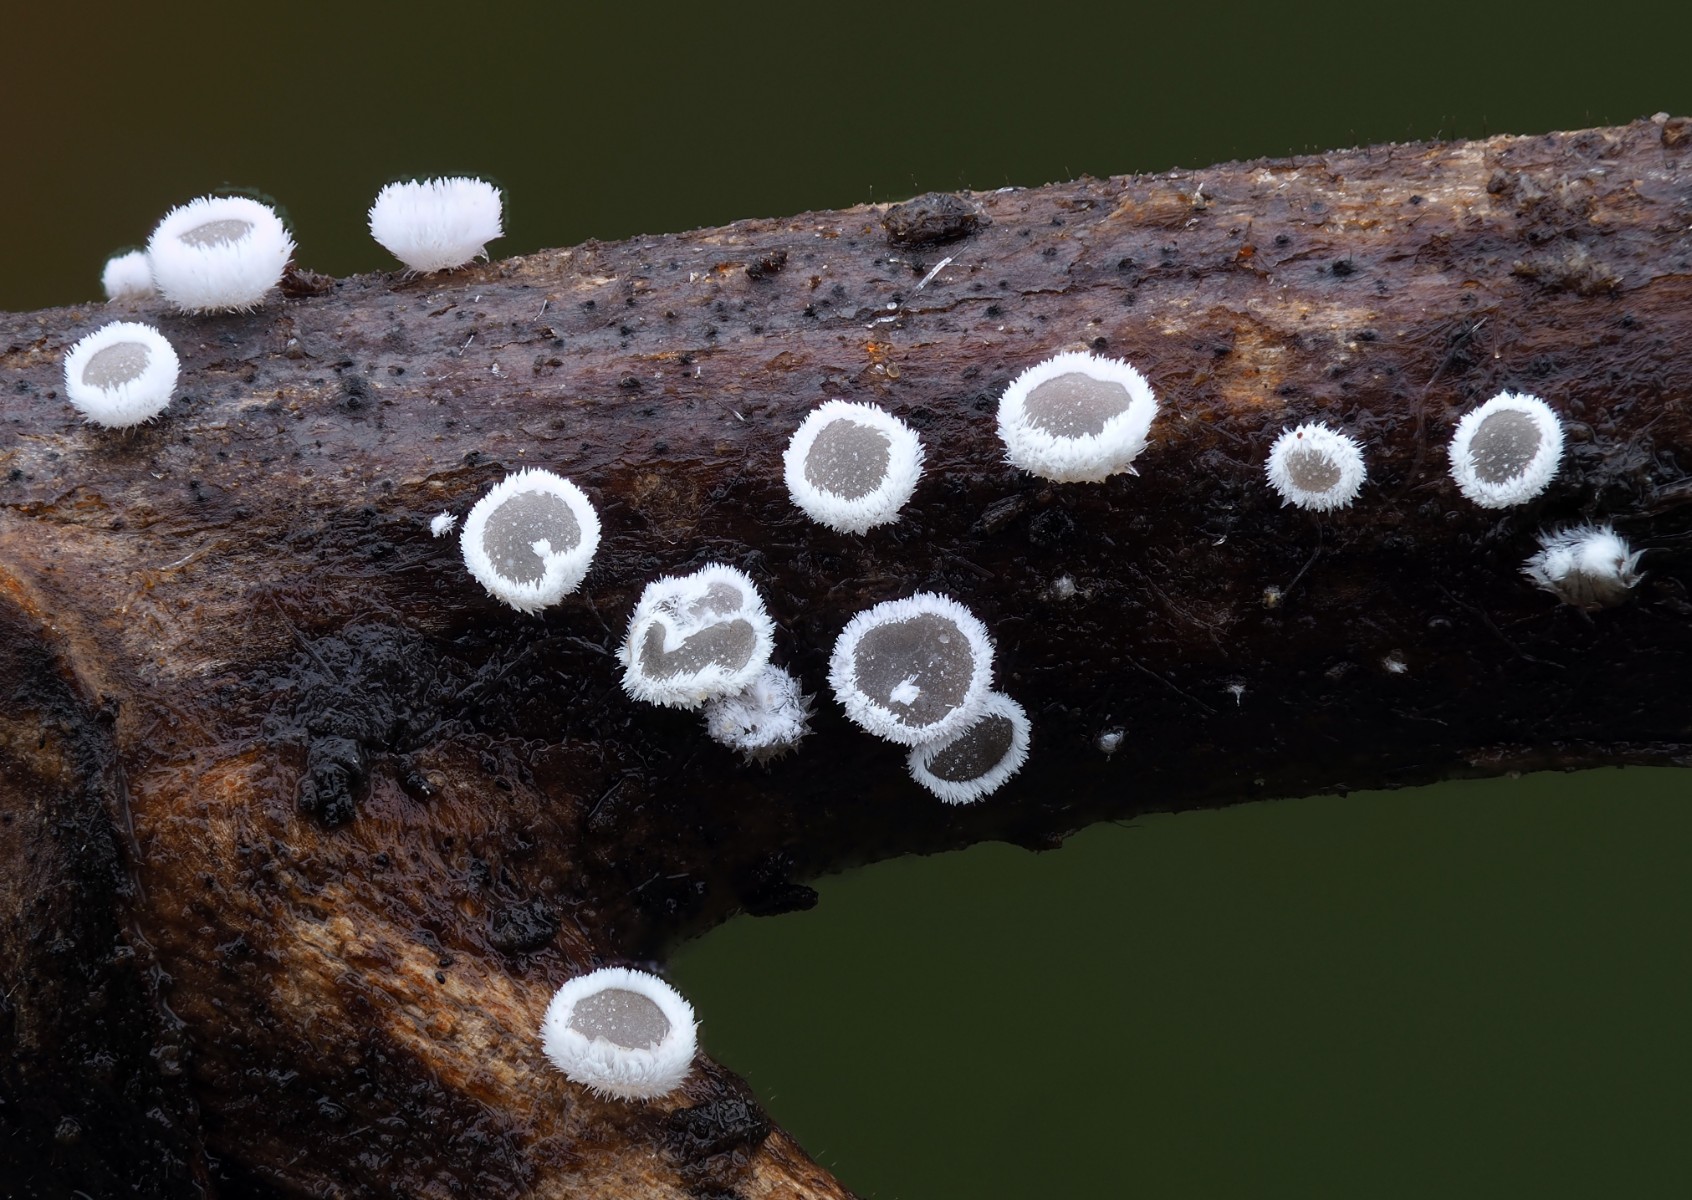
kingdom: Fungi
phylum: Basidiomycota
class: Agaricomycetes
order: Agaricales
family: Niaceae
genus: Lachnella
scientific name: Lachnella alboviolascens
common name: grå frynserede
